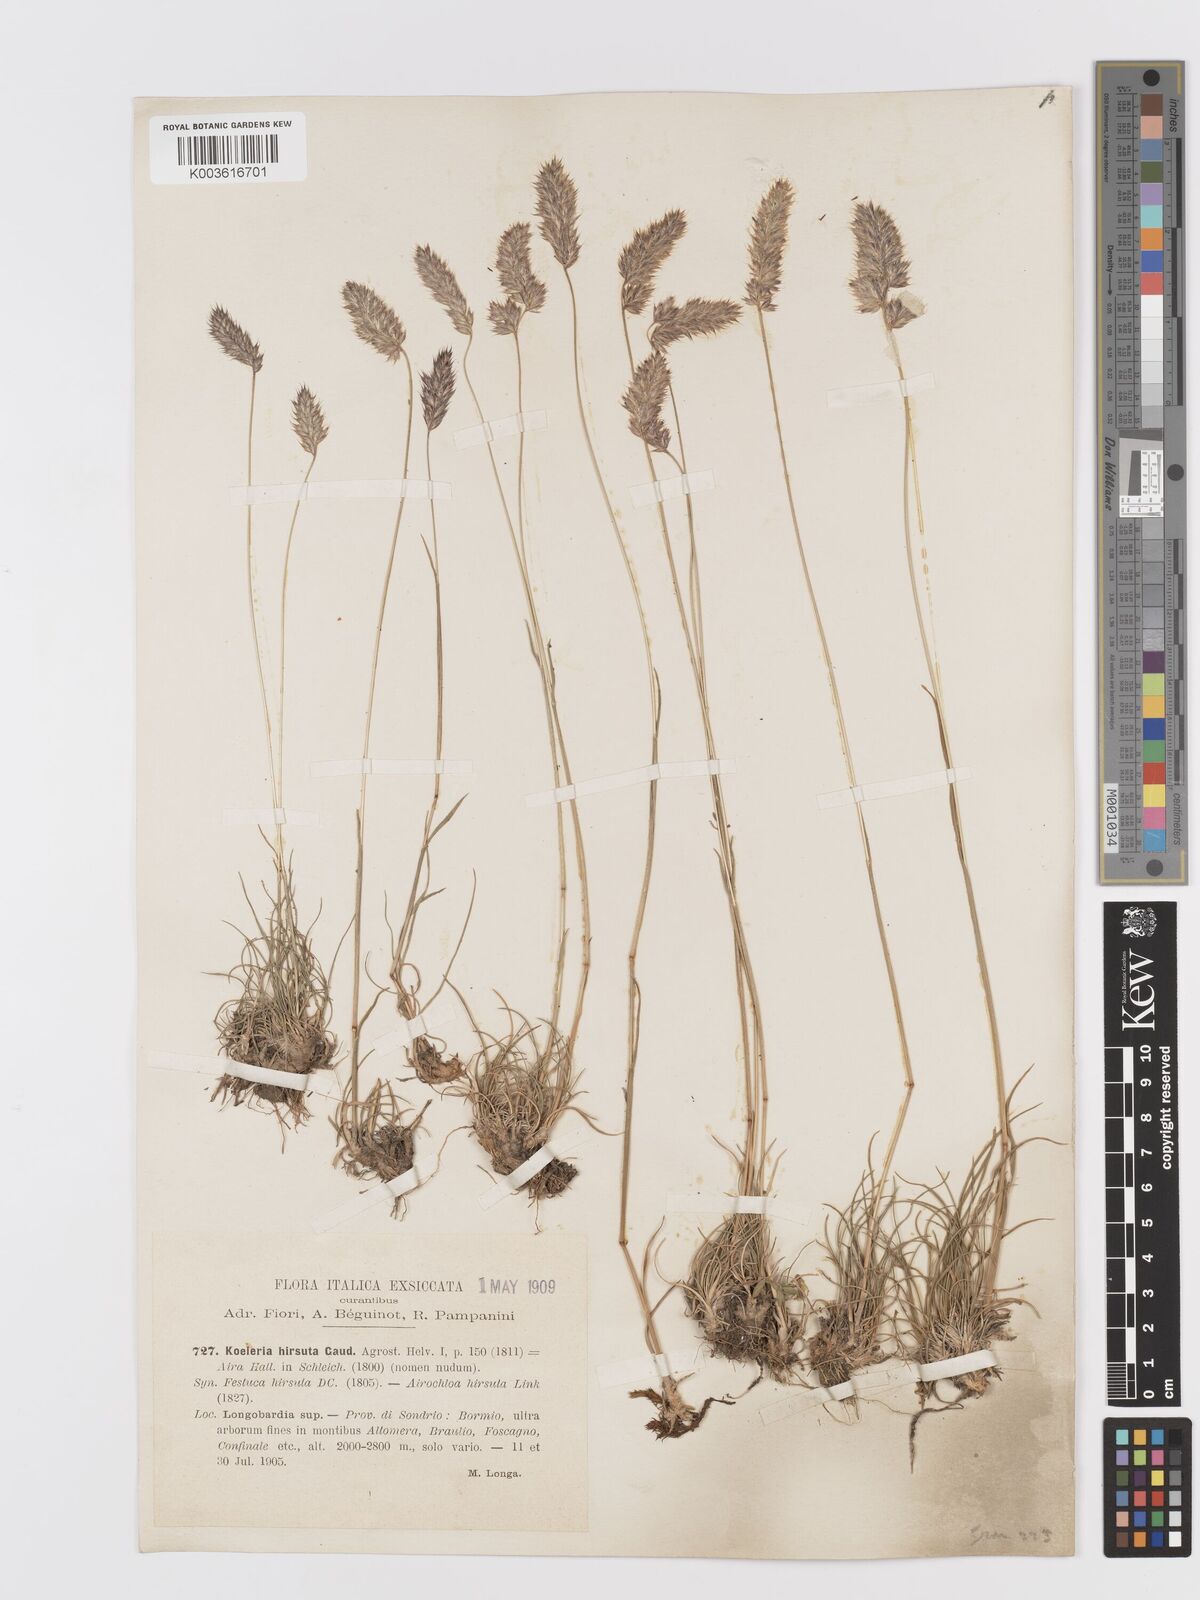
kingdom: Plantae
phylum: Tracheophyta
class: Liliopsida
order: Poales
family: Poaceae
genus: Koeleria
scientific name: Koeleria hirsuta
